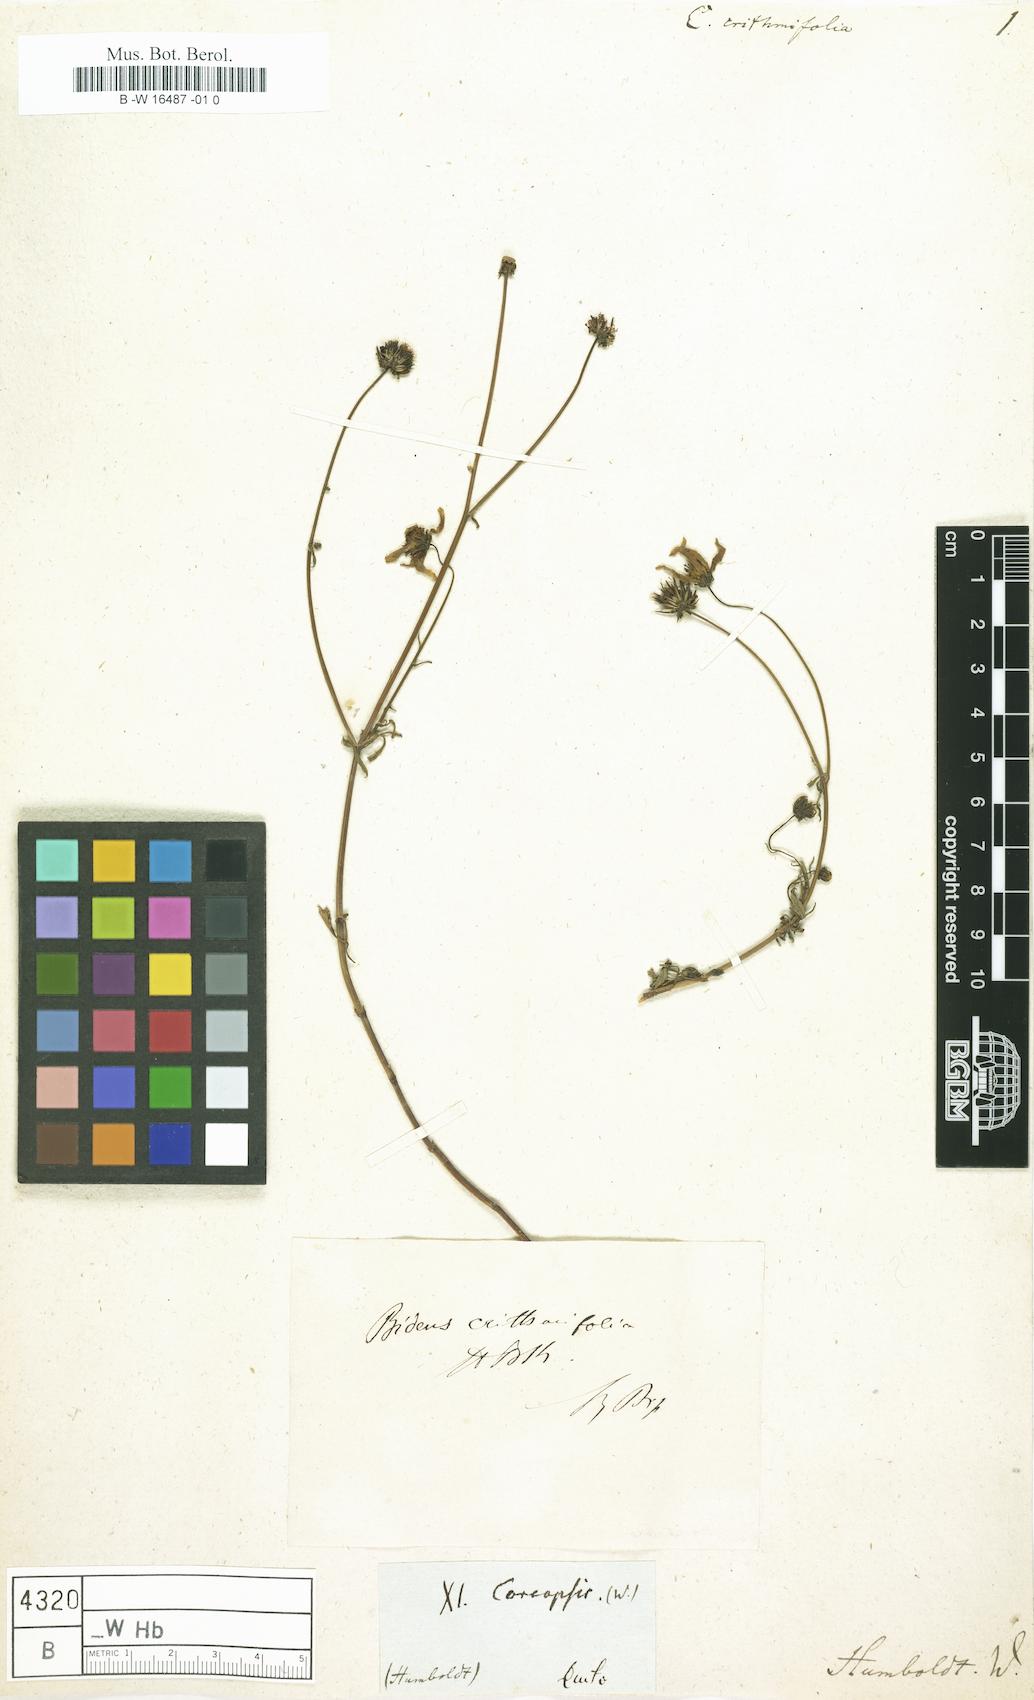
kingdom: Plantae
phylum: Tracheophyta
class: Magnoliopsida
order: Asterales
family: Asteraceae
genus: Coreopsis
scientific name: Coreopsis
